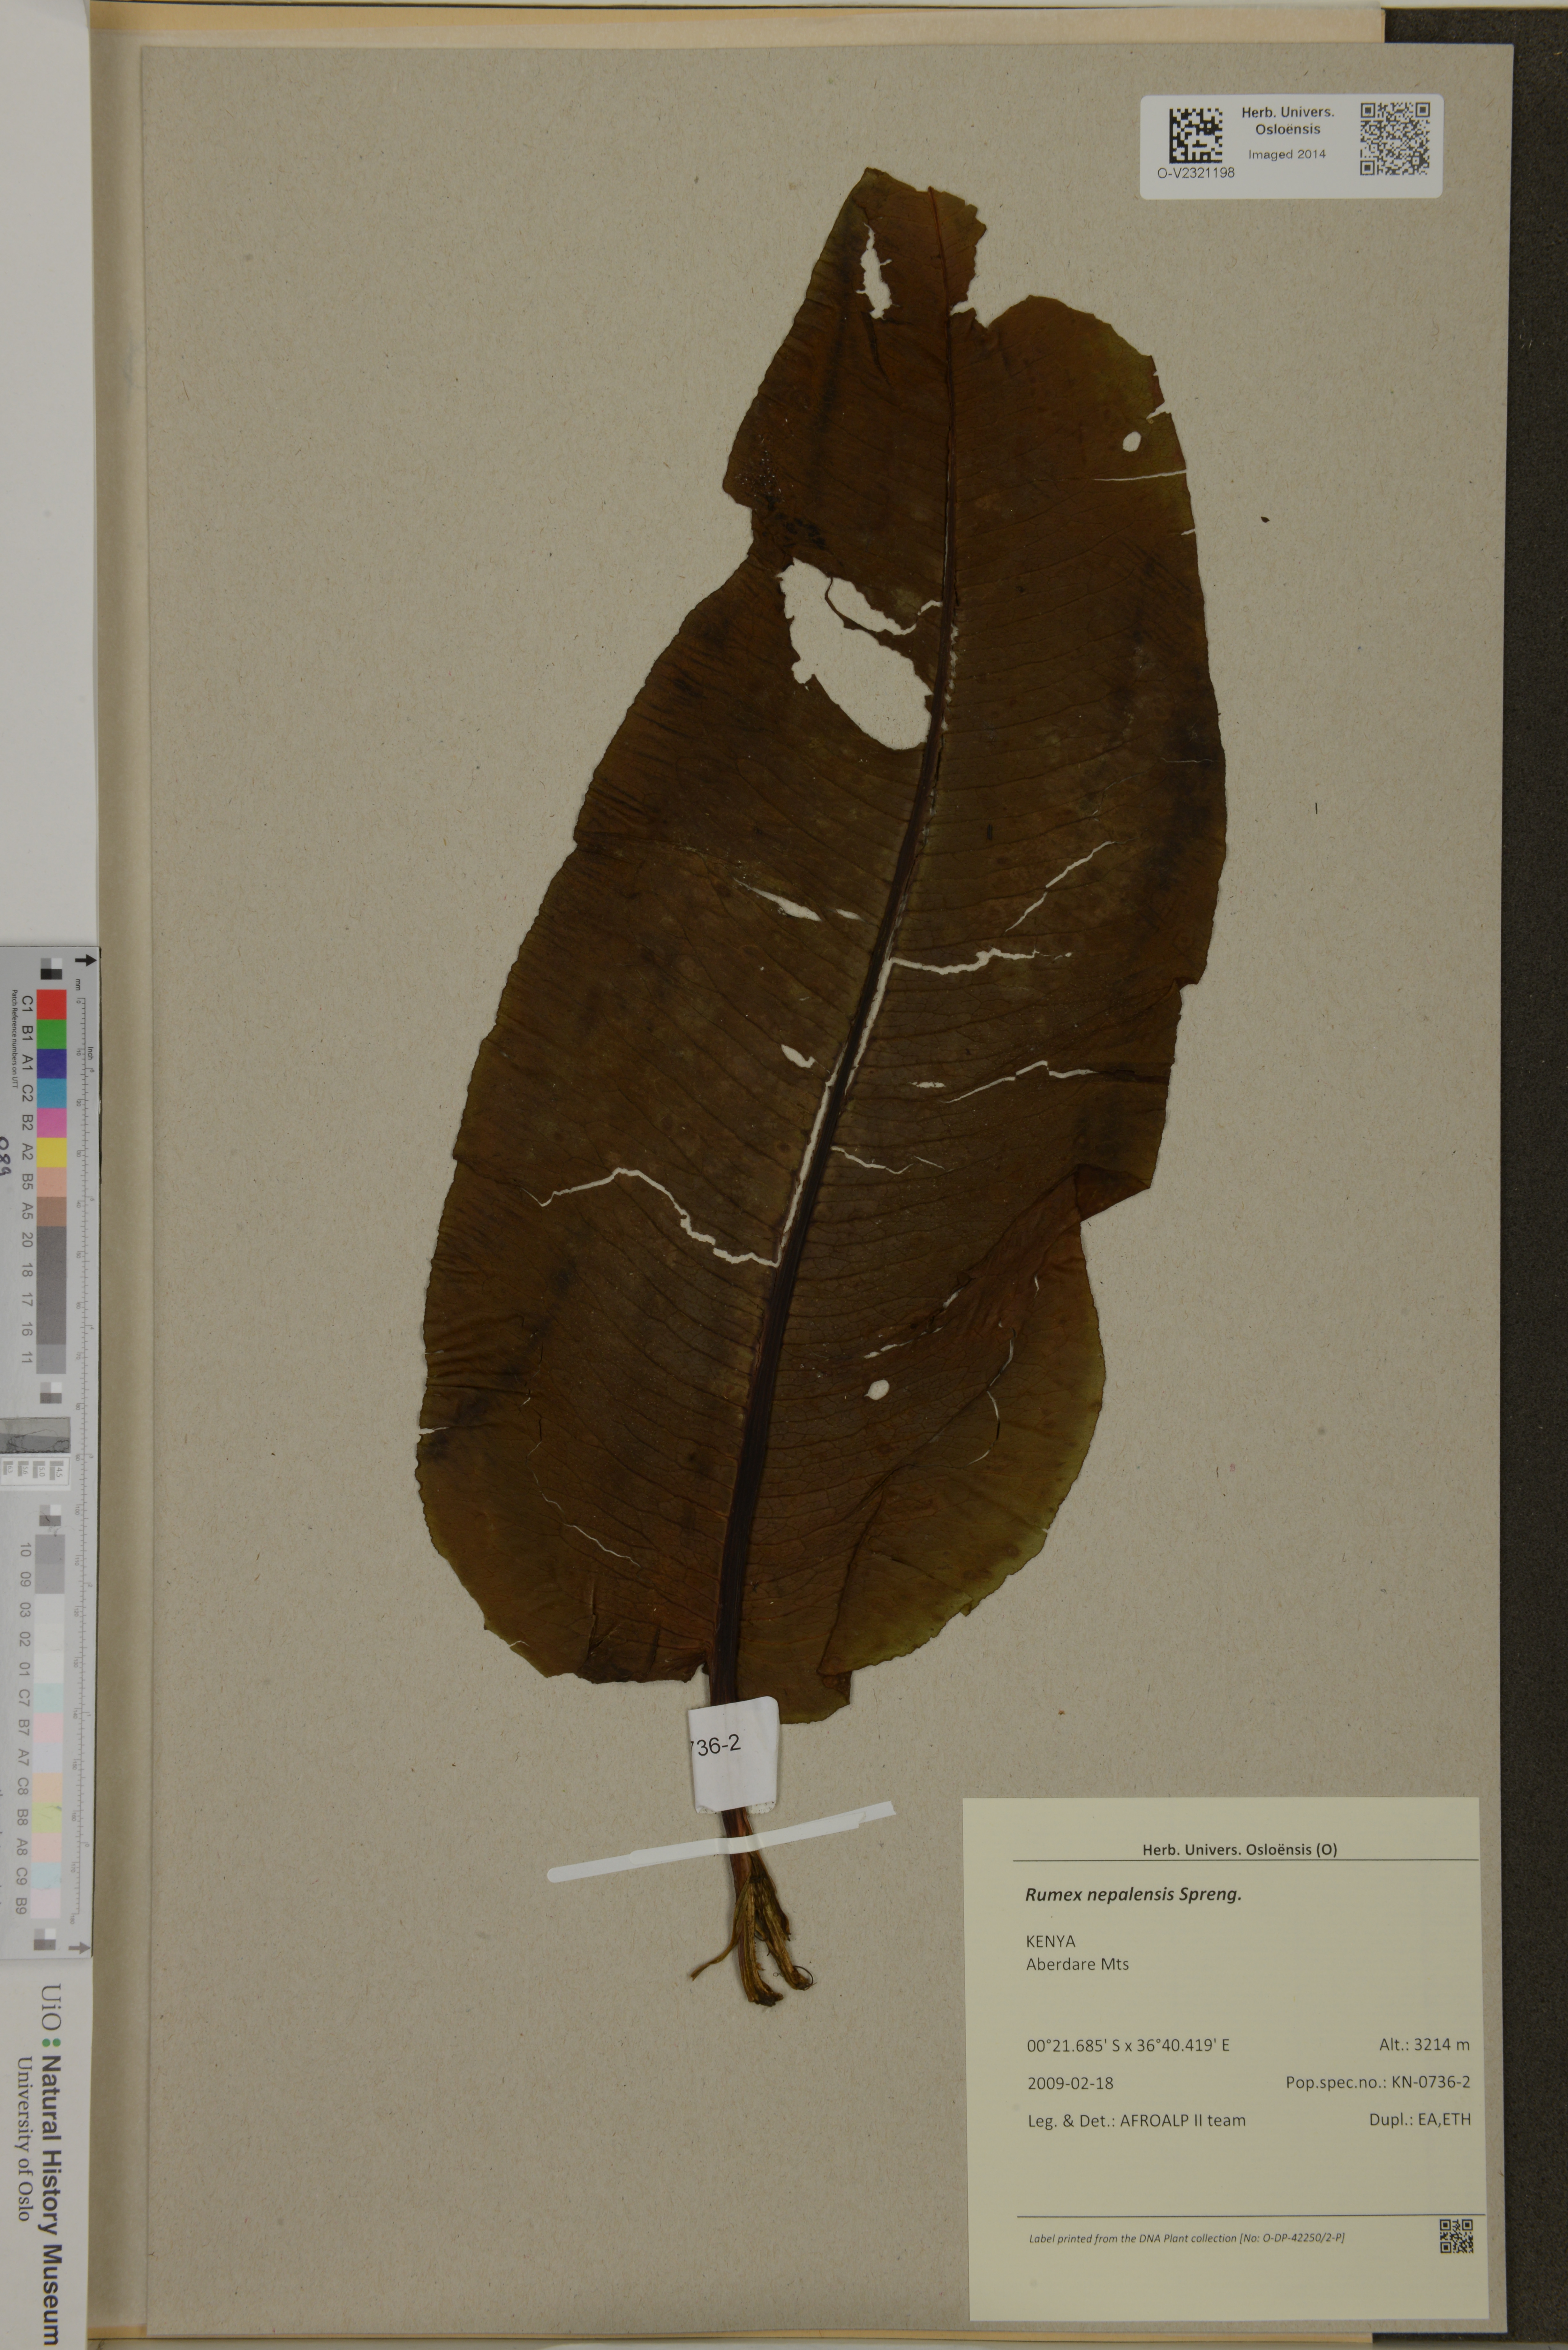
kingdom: Plantae
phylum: Tracheophyta
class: Magnoliopsida
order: Caryophyllales
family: Polygonaceae
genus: Rumex
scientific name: Rumex nepalensis
